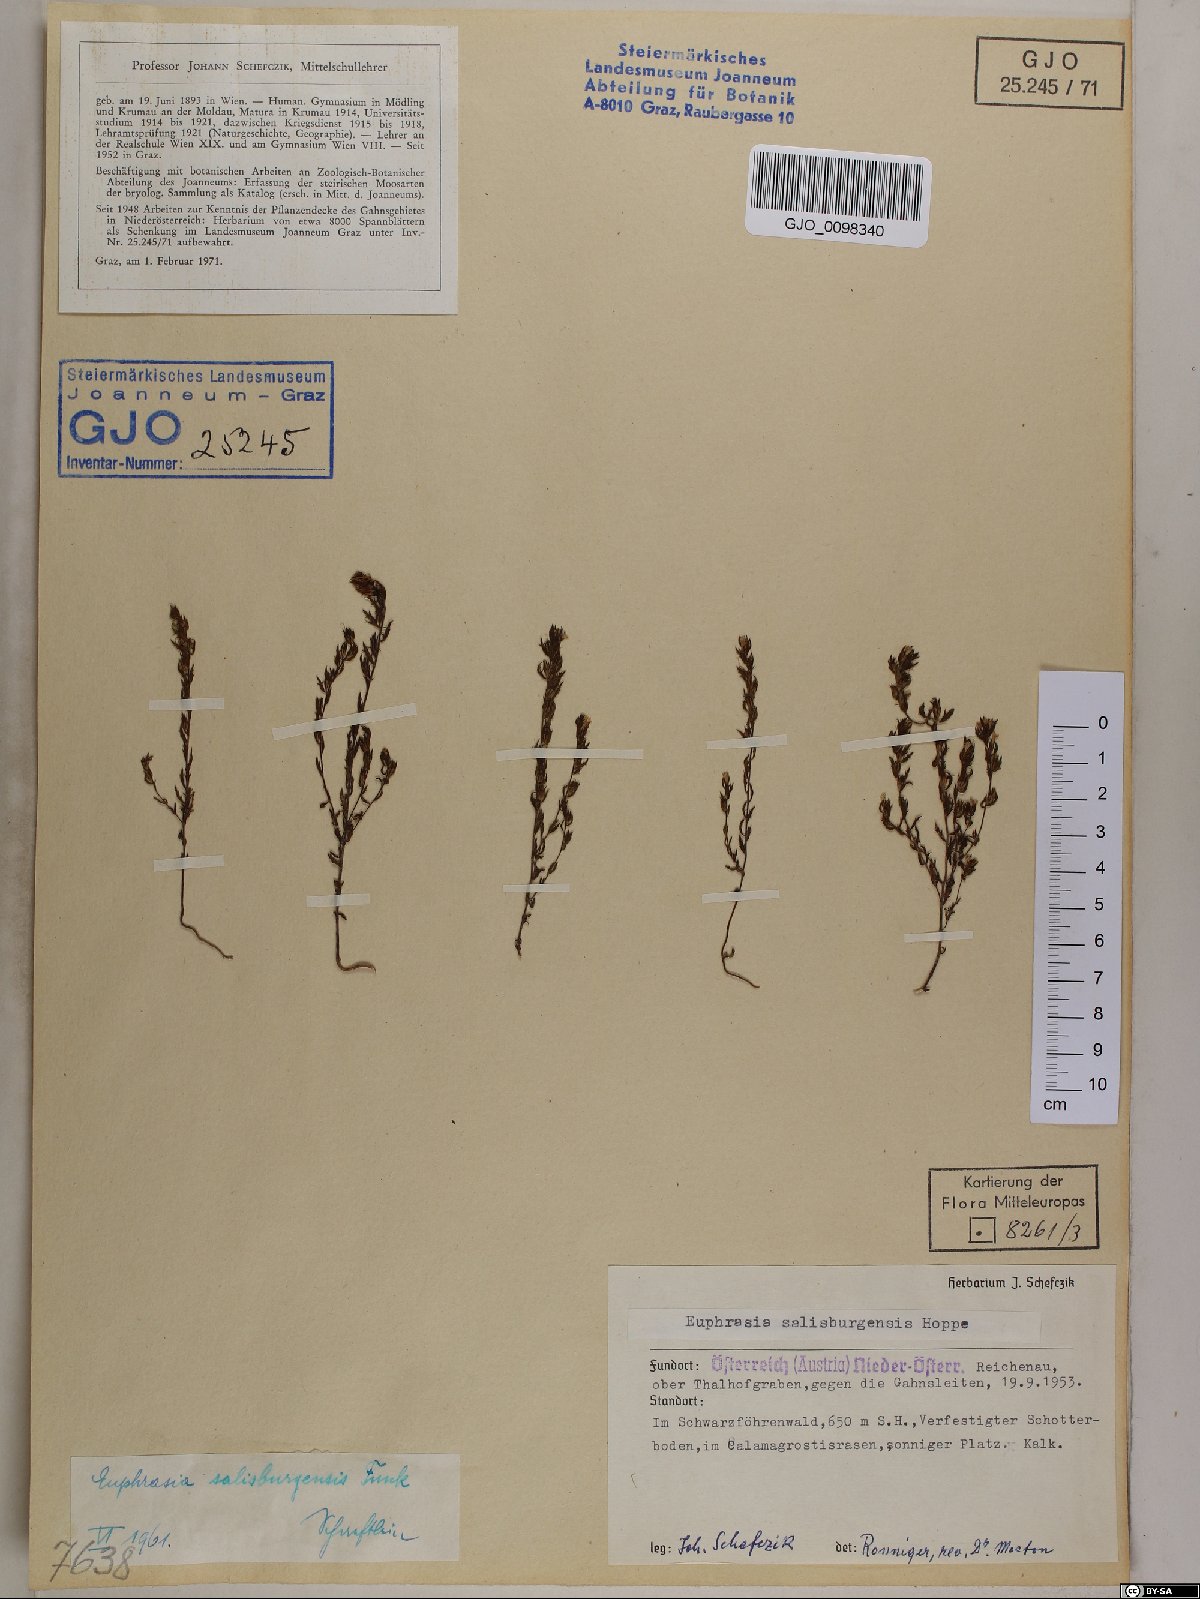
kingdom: Plantae
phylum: Tracheophyta
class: Magnoliopsida
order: Lamiales
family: Orobanchaceae
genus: Euphrasia
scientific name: Euphrasia salisburgensis
